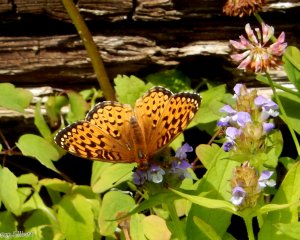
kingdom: Animalia
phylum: Arthropoda
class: Insecta
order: Lepidoptera
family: Nymphalidae
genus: Speyeria
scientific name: Speyeria atlantis
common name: Atlantis Fritillary
